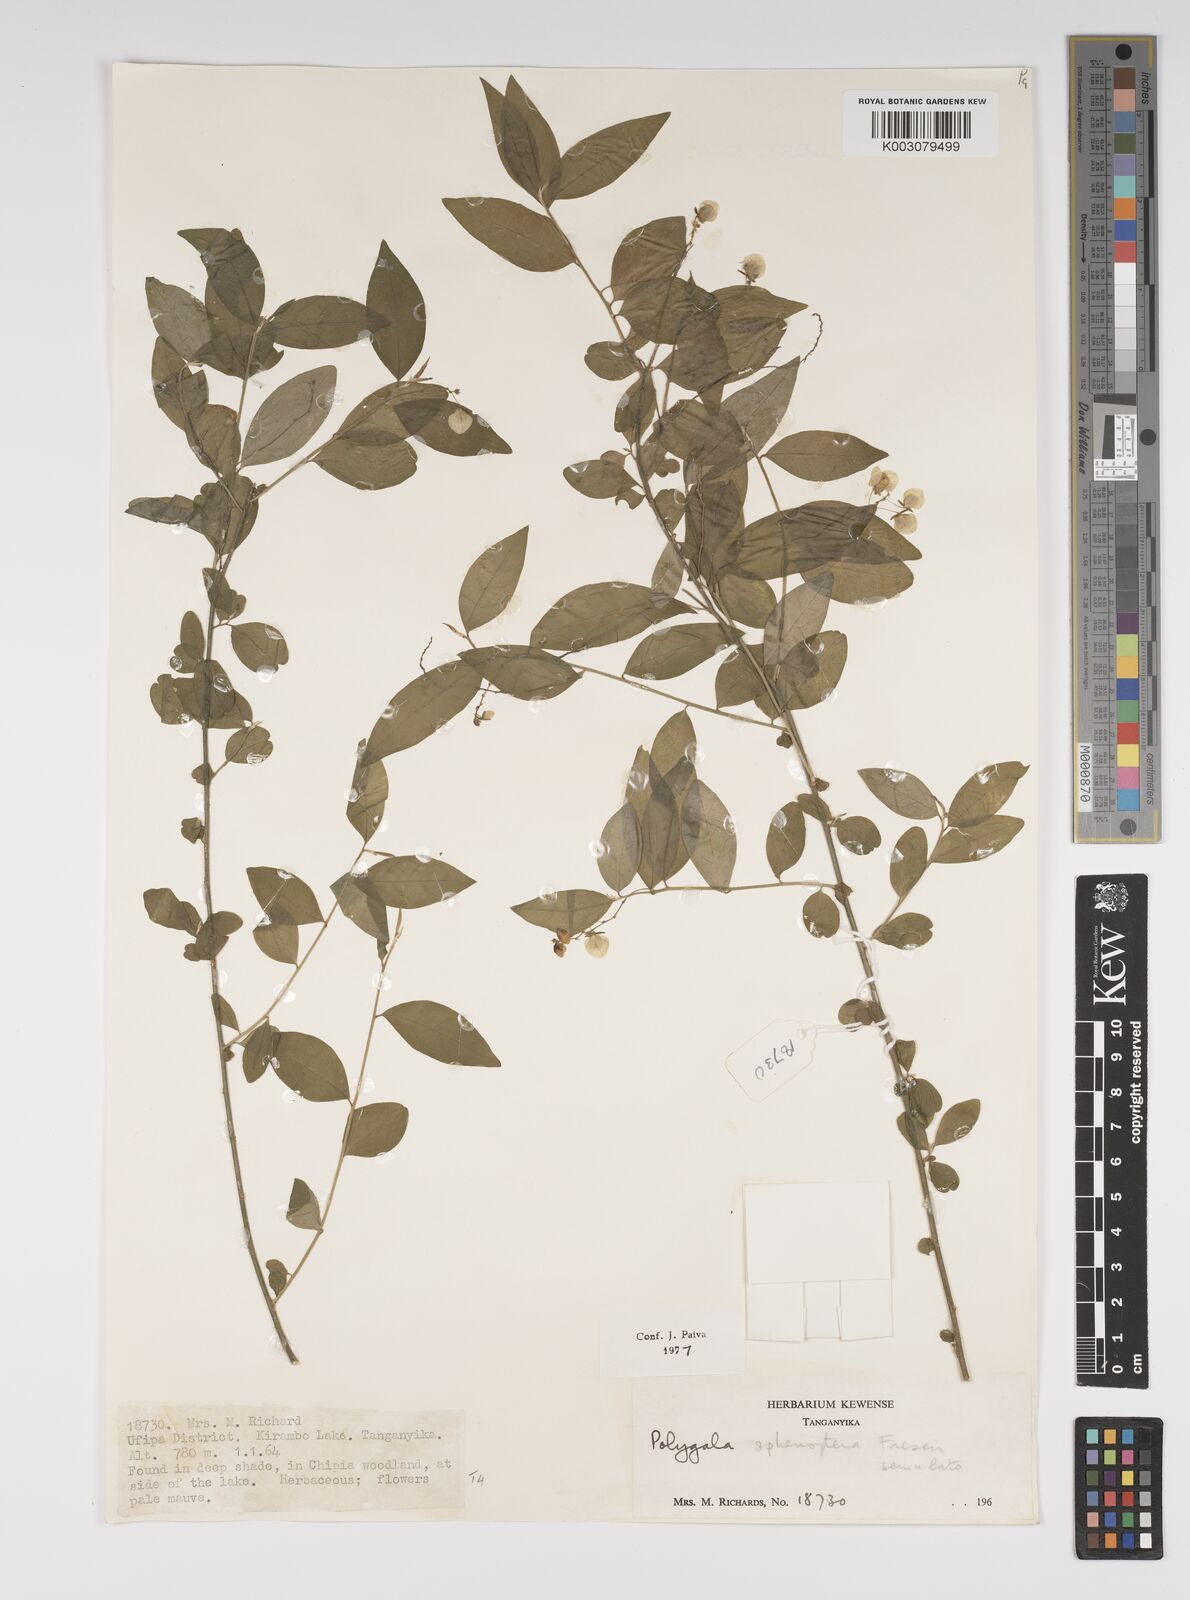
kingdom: Plantae
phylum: Tracheophyta
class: Magnoliopsida
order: Fabales
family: Polygalaceae
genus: Polygala
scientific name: Polygala sphenoptera
